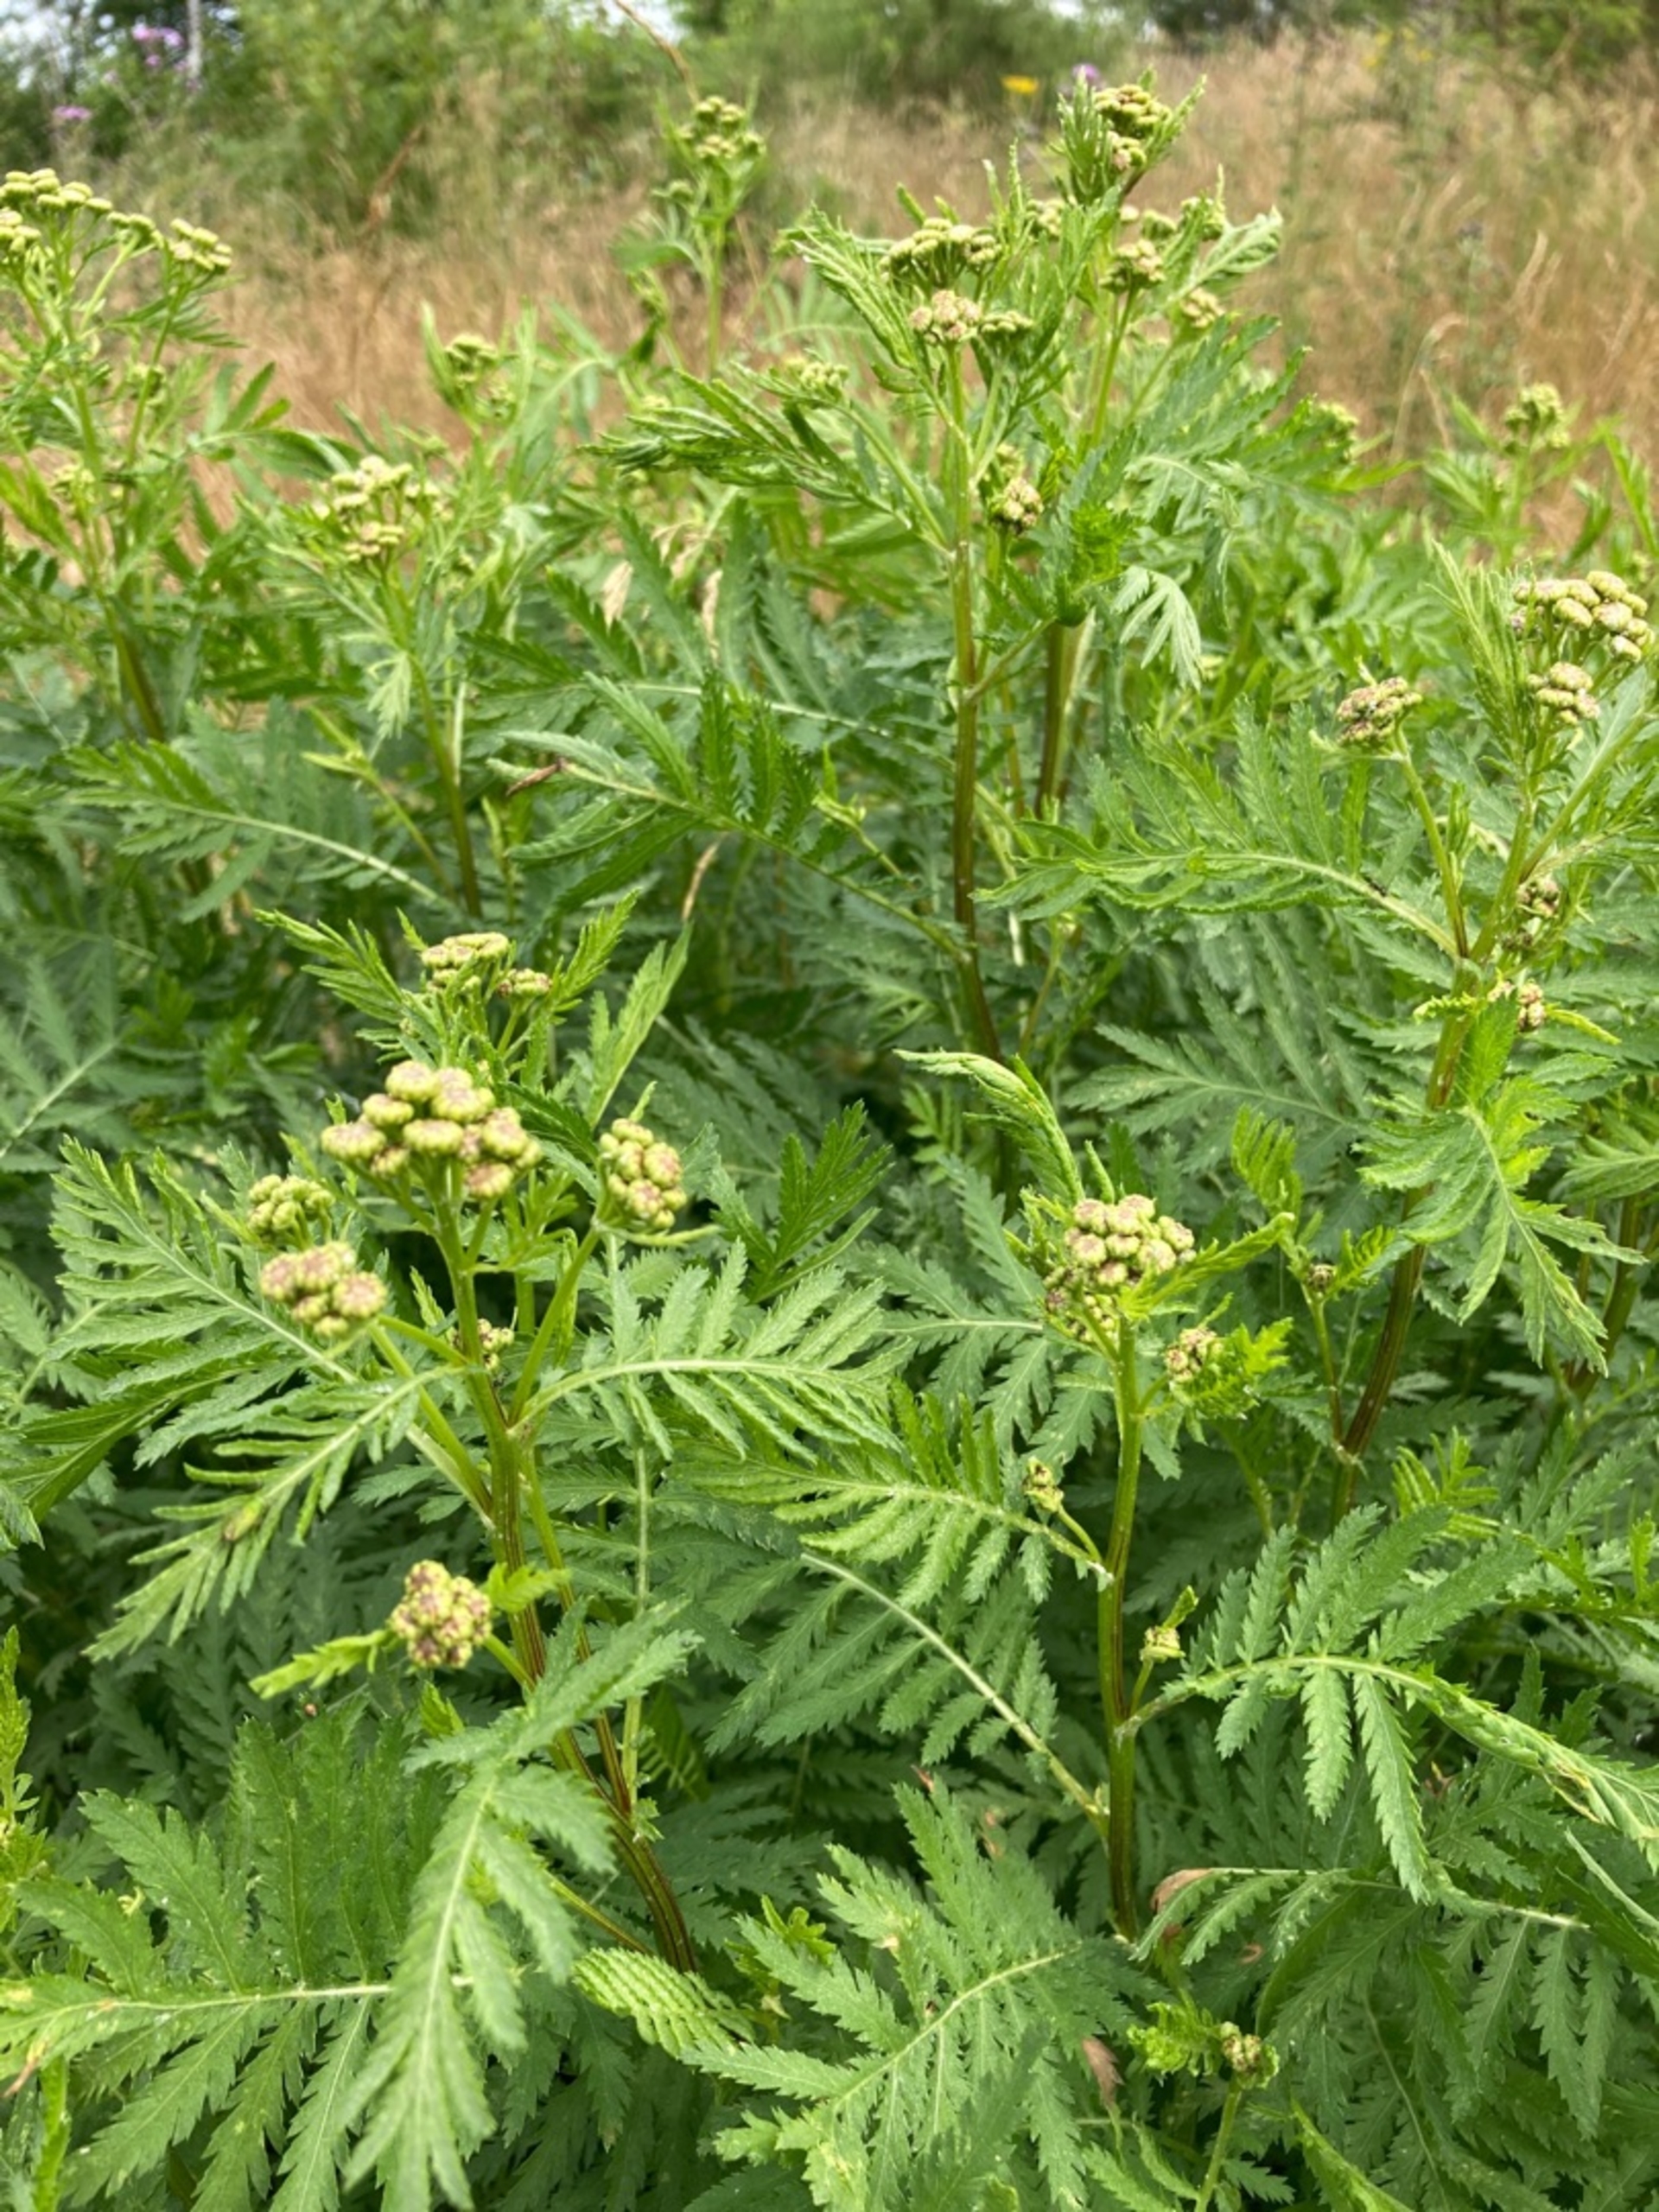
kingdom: Plantae
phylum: Tracheophyta
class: Magnoliopsida
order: Asterales
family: Asteraceae
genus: Tanacetum
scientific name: Tanacetum vulgare
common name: Rejnfan
